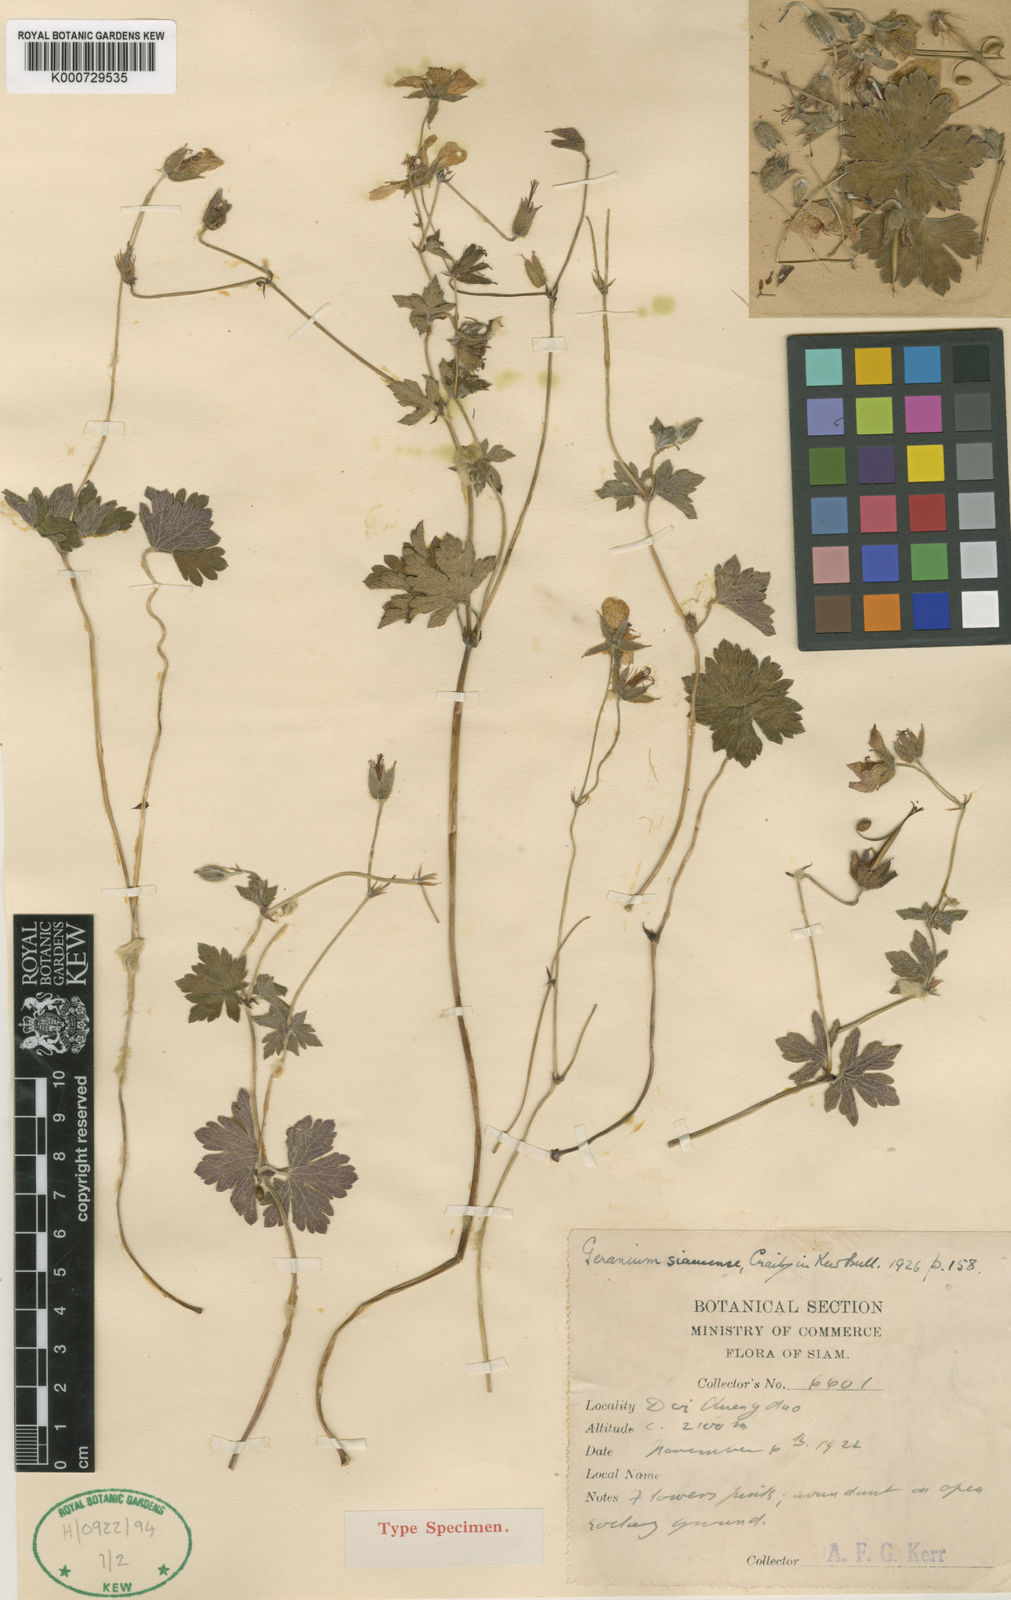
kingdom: Plantae
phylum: Tracheophyta
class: Magnoliopsida
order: Geraniales
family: Geraniaceae
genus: Geranium
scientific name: Geranium siamense
